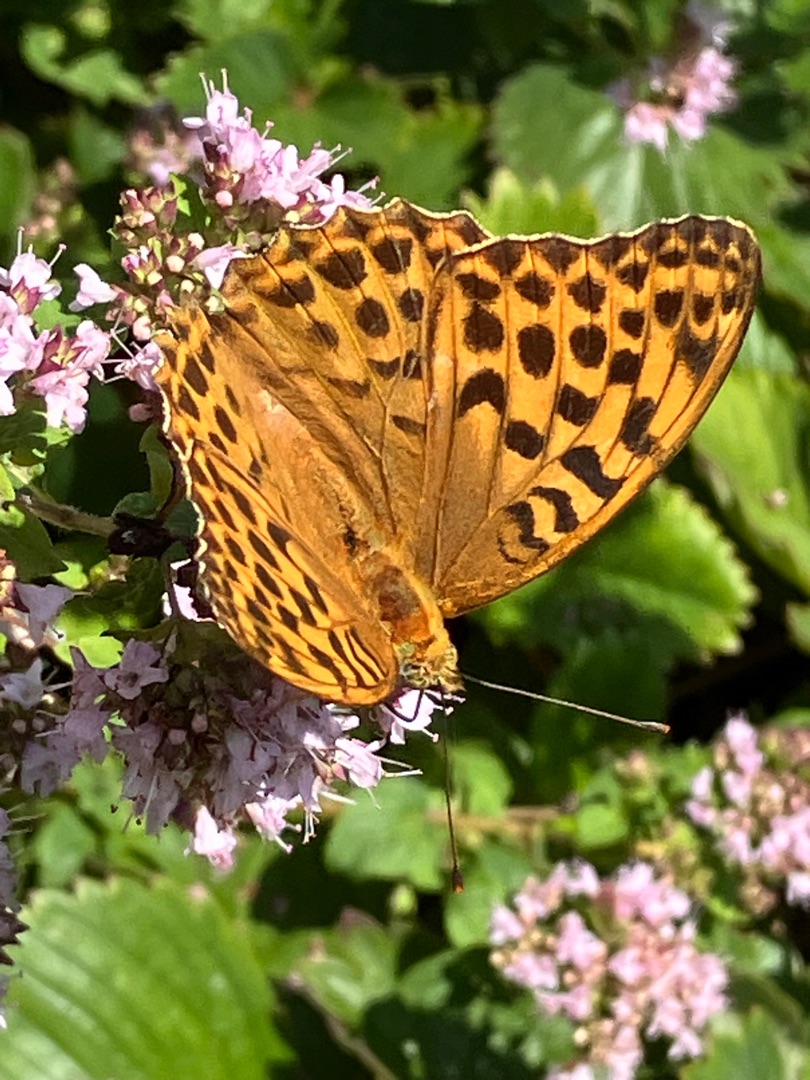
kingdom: Animalia
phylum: Arthropoda
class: Insecta
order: Lepidoptera
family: Nymphalidae
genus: Argynnis
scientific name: Argynnis paphia
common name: Kejserkåbe
